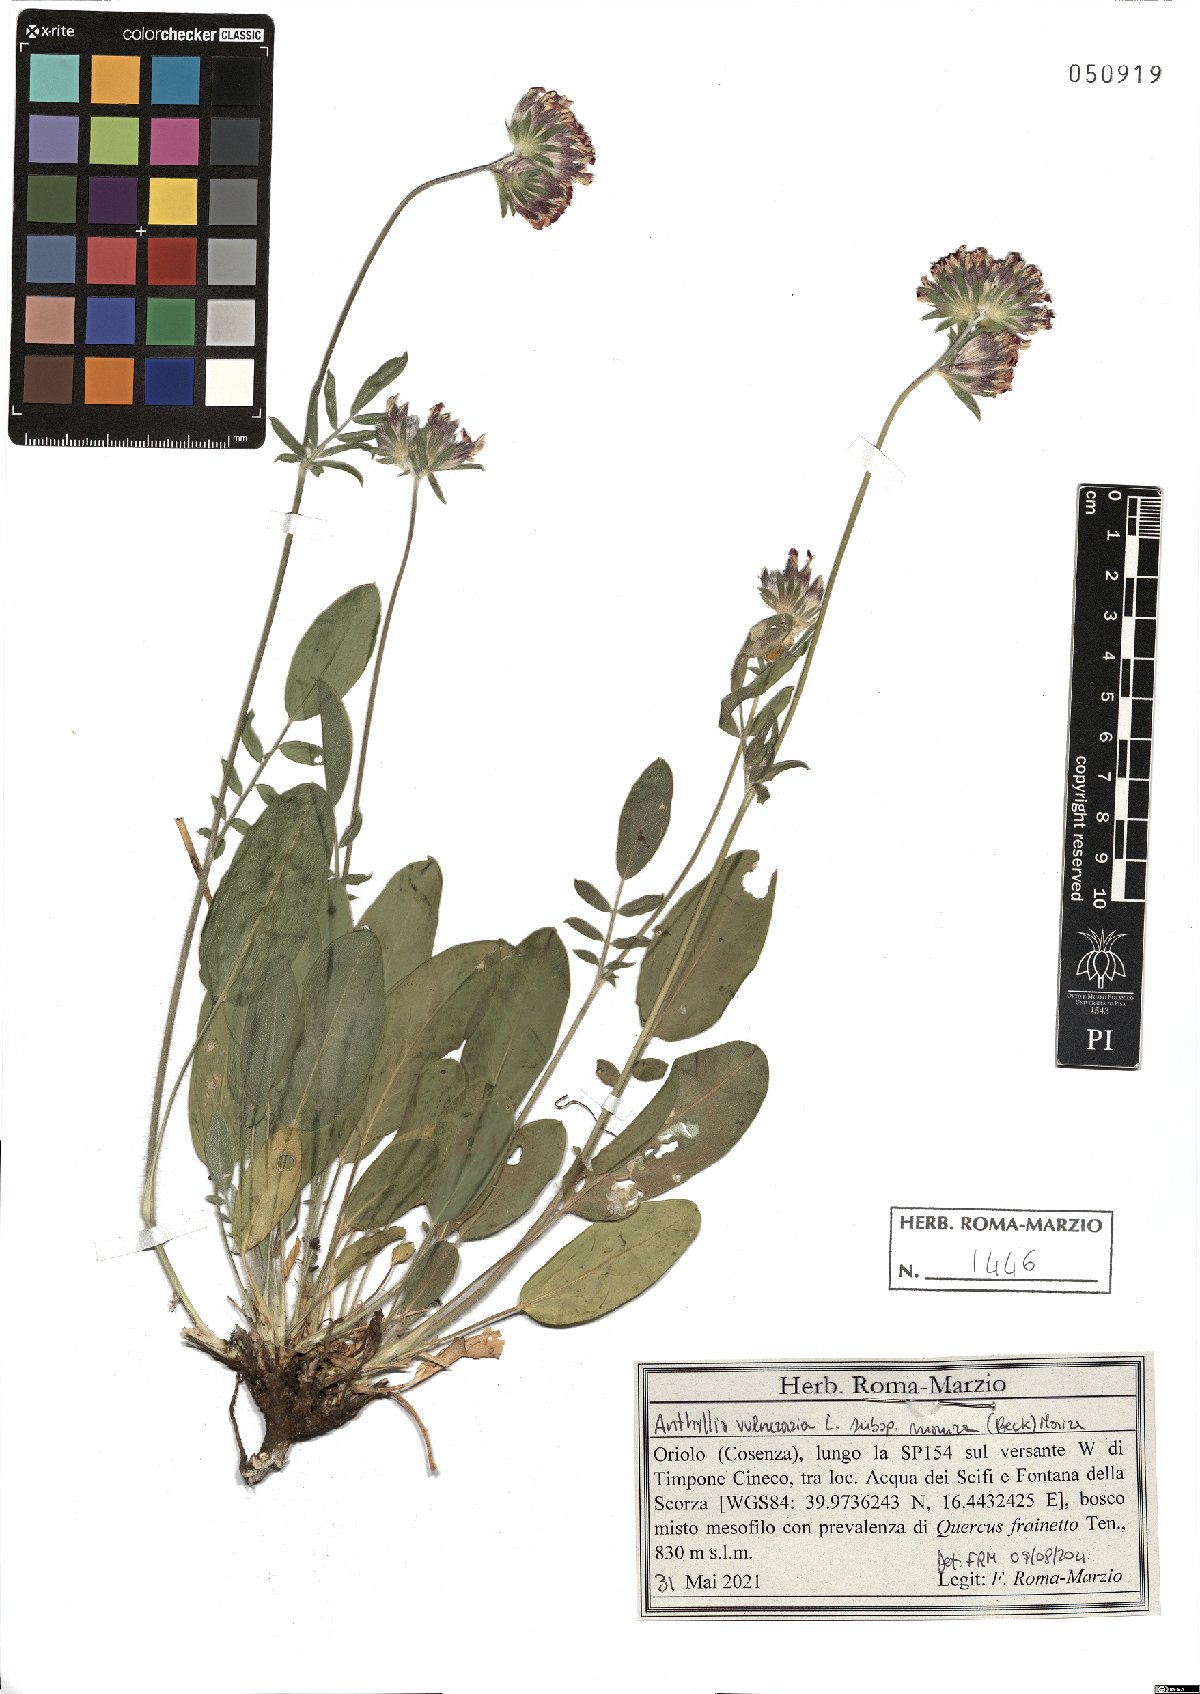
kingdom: Plantae
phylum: Tracheophyta
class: Magnoliopsida
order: Fabales
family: Fabaceae
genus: Anthyllis
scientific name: Anthyllis vulneraria
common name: Kidney vetch
